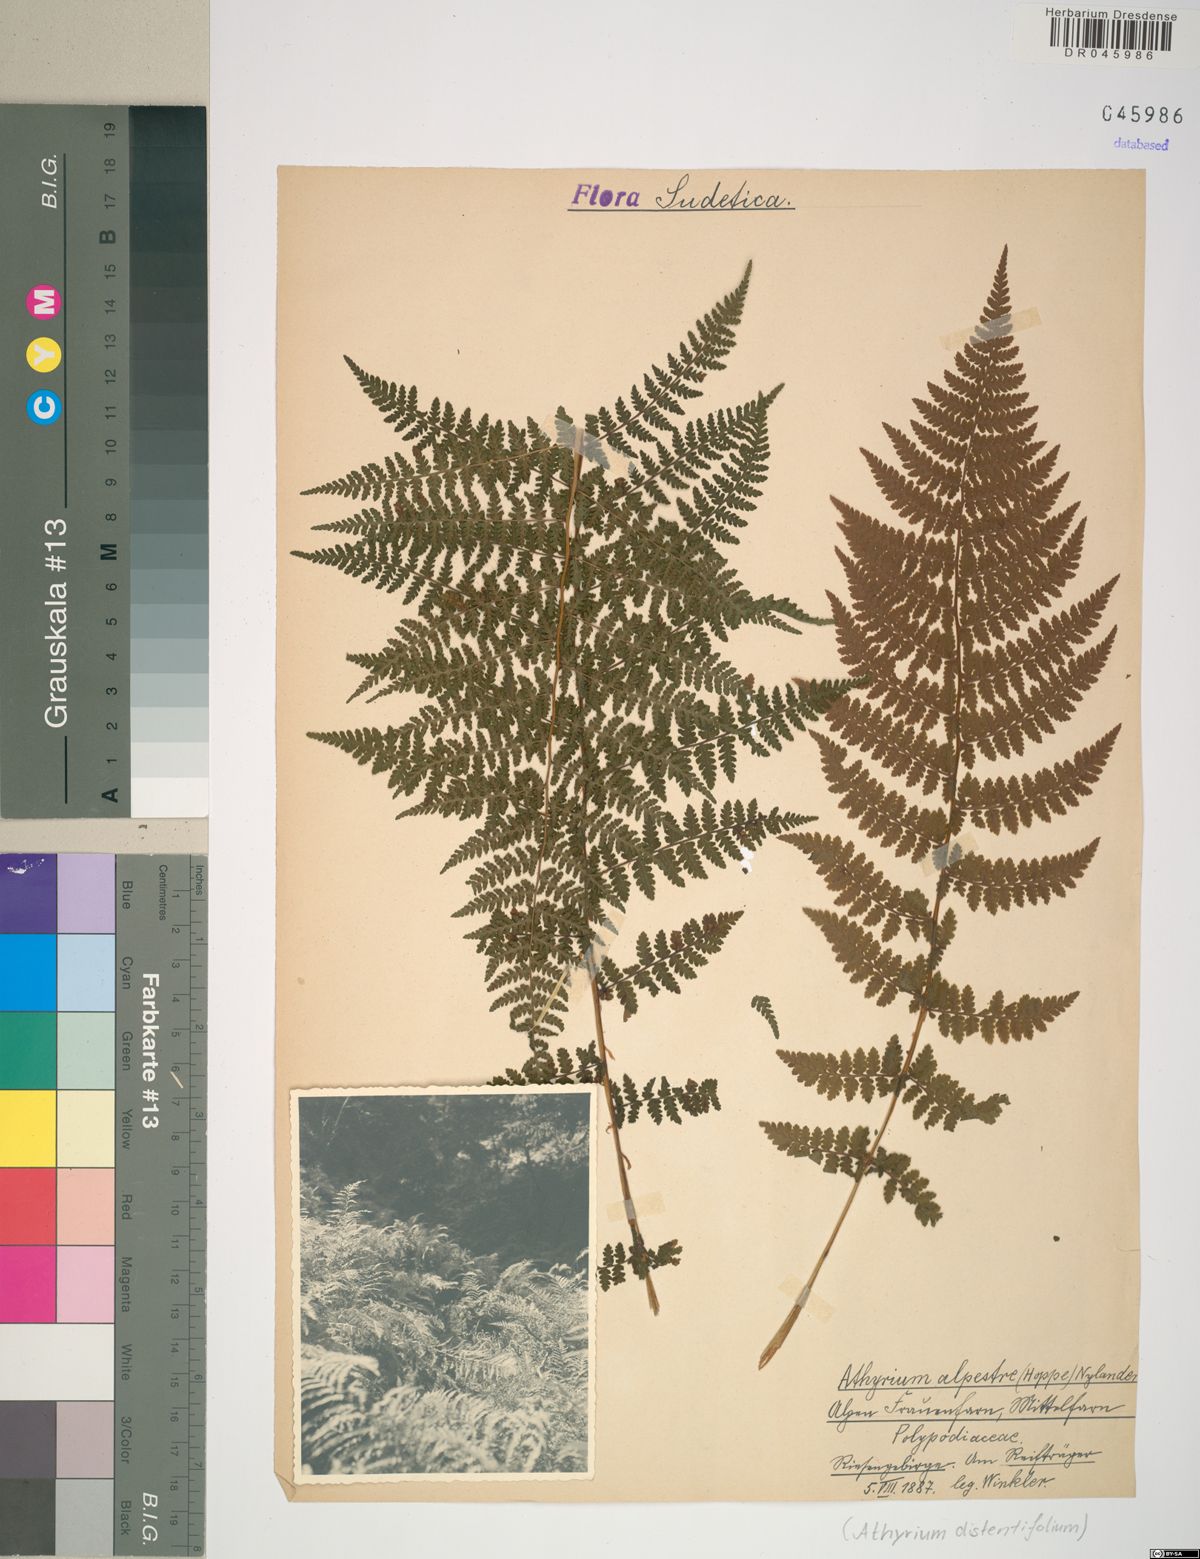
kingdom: Plantae
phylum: Tracheophyta
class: Polypodiopsida
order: Polypodiales
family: Athyriaceae
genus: Pseudathyrium
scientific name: Pseudathyrium alpestre
